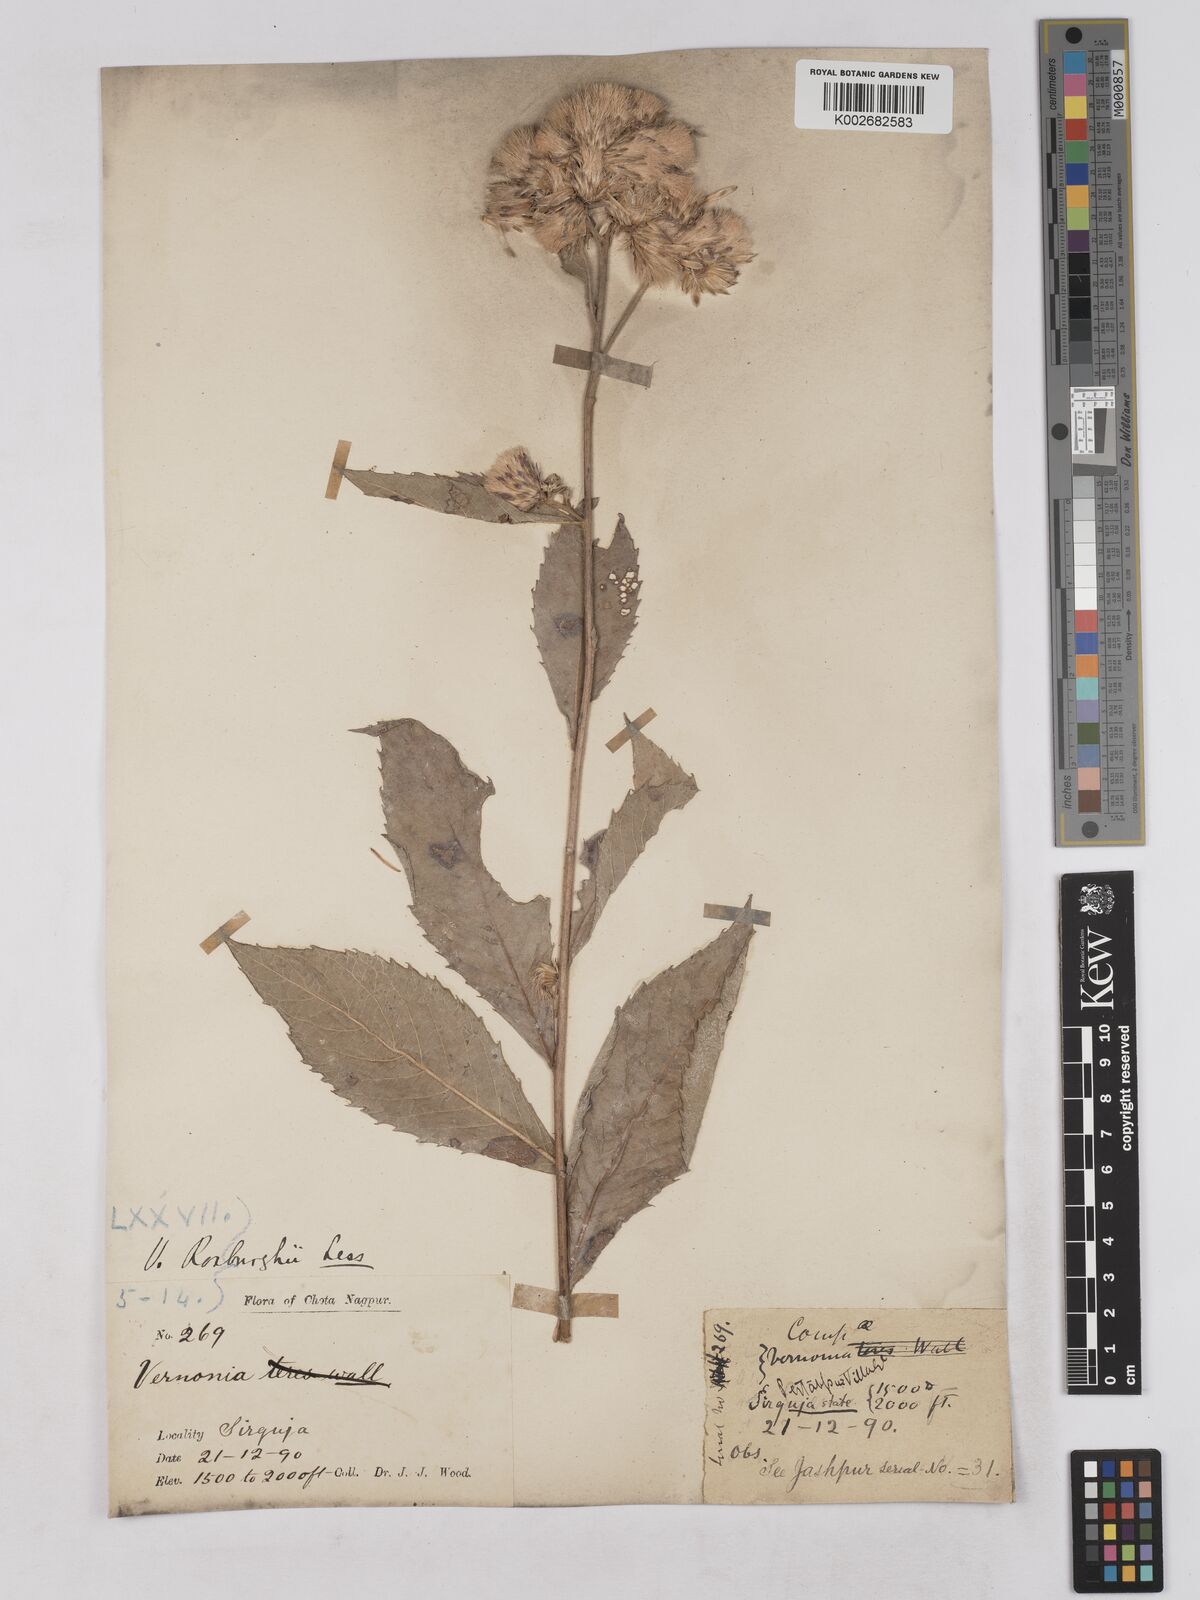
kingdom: Plantae
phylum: Tracheophyta
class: Magnoliopsida
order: Asterales
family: Asteraceae
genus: Acilepis
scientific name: Acilepis aspera
